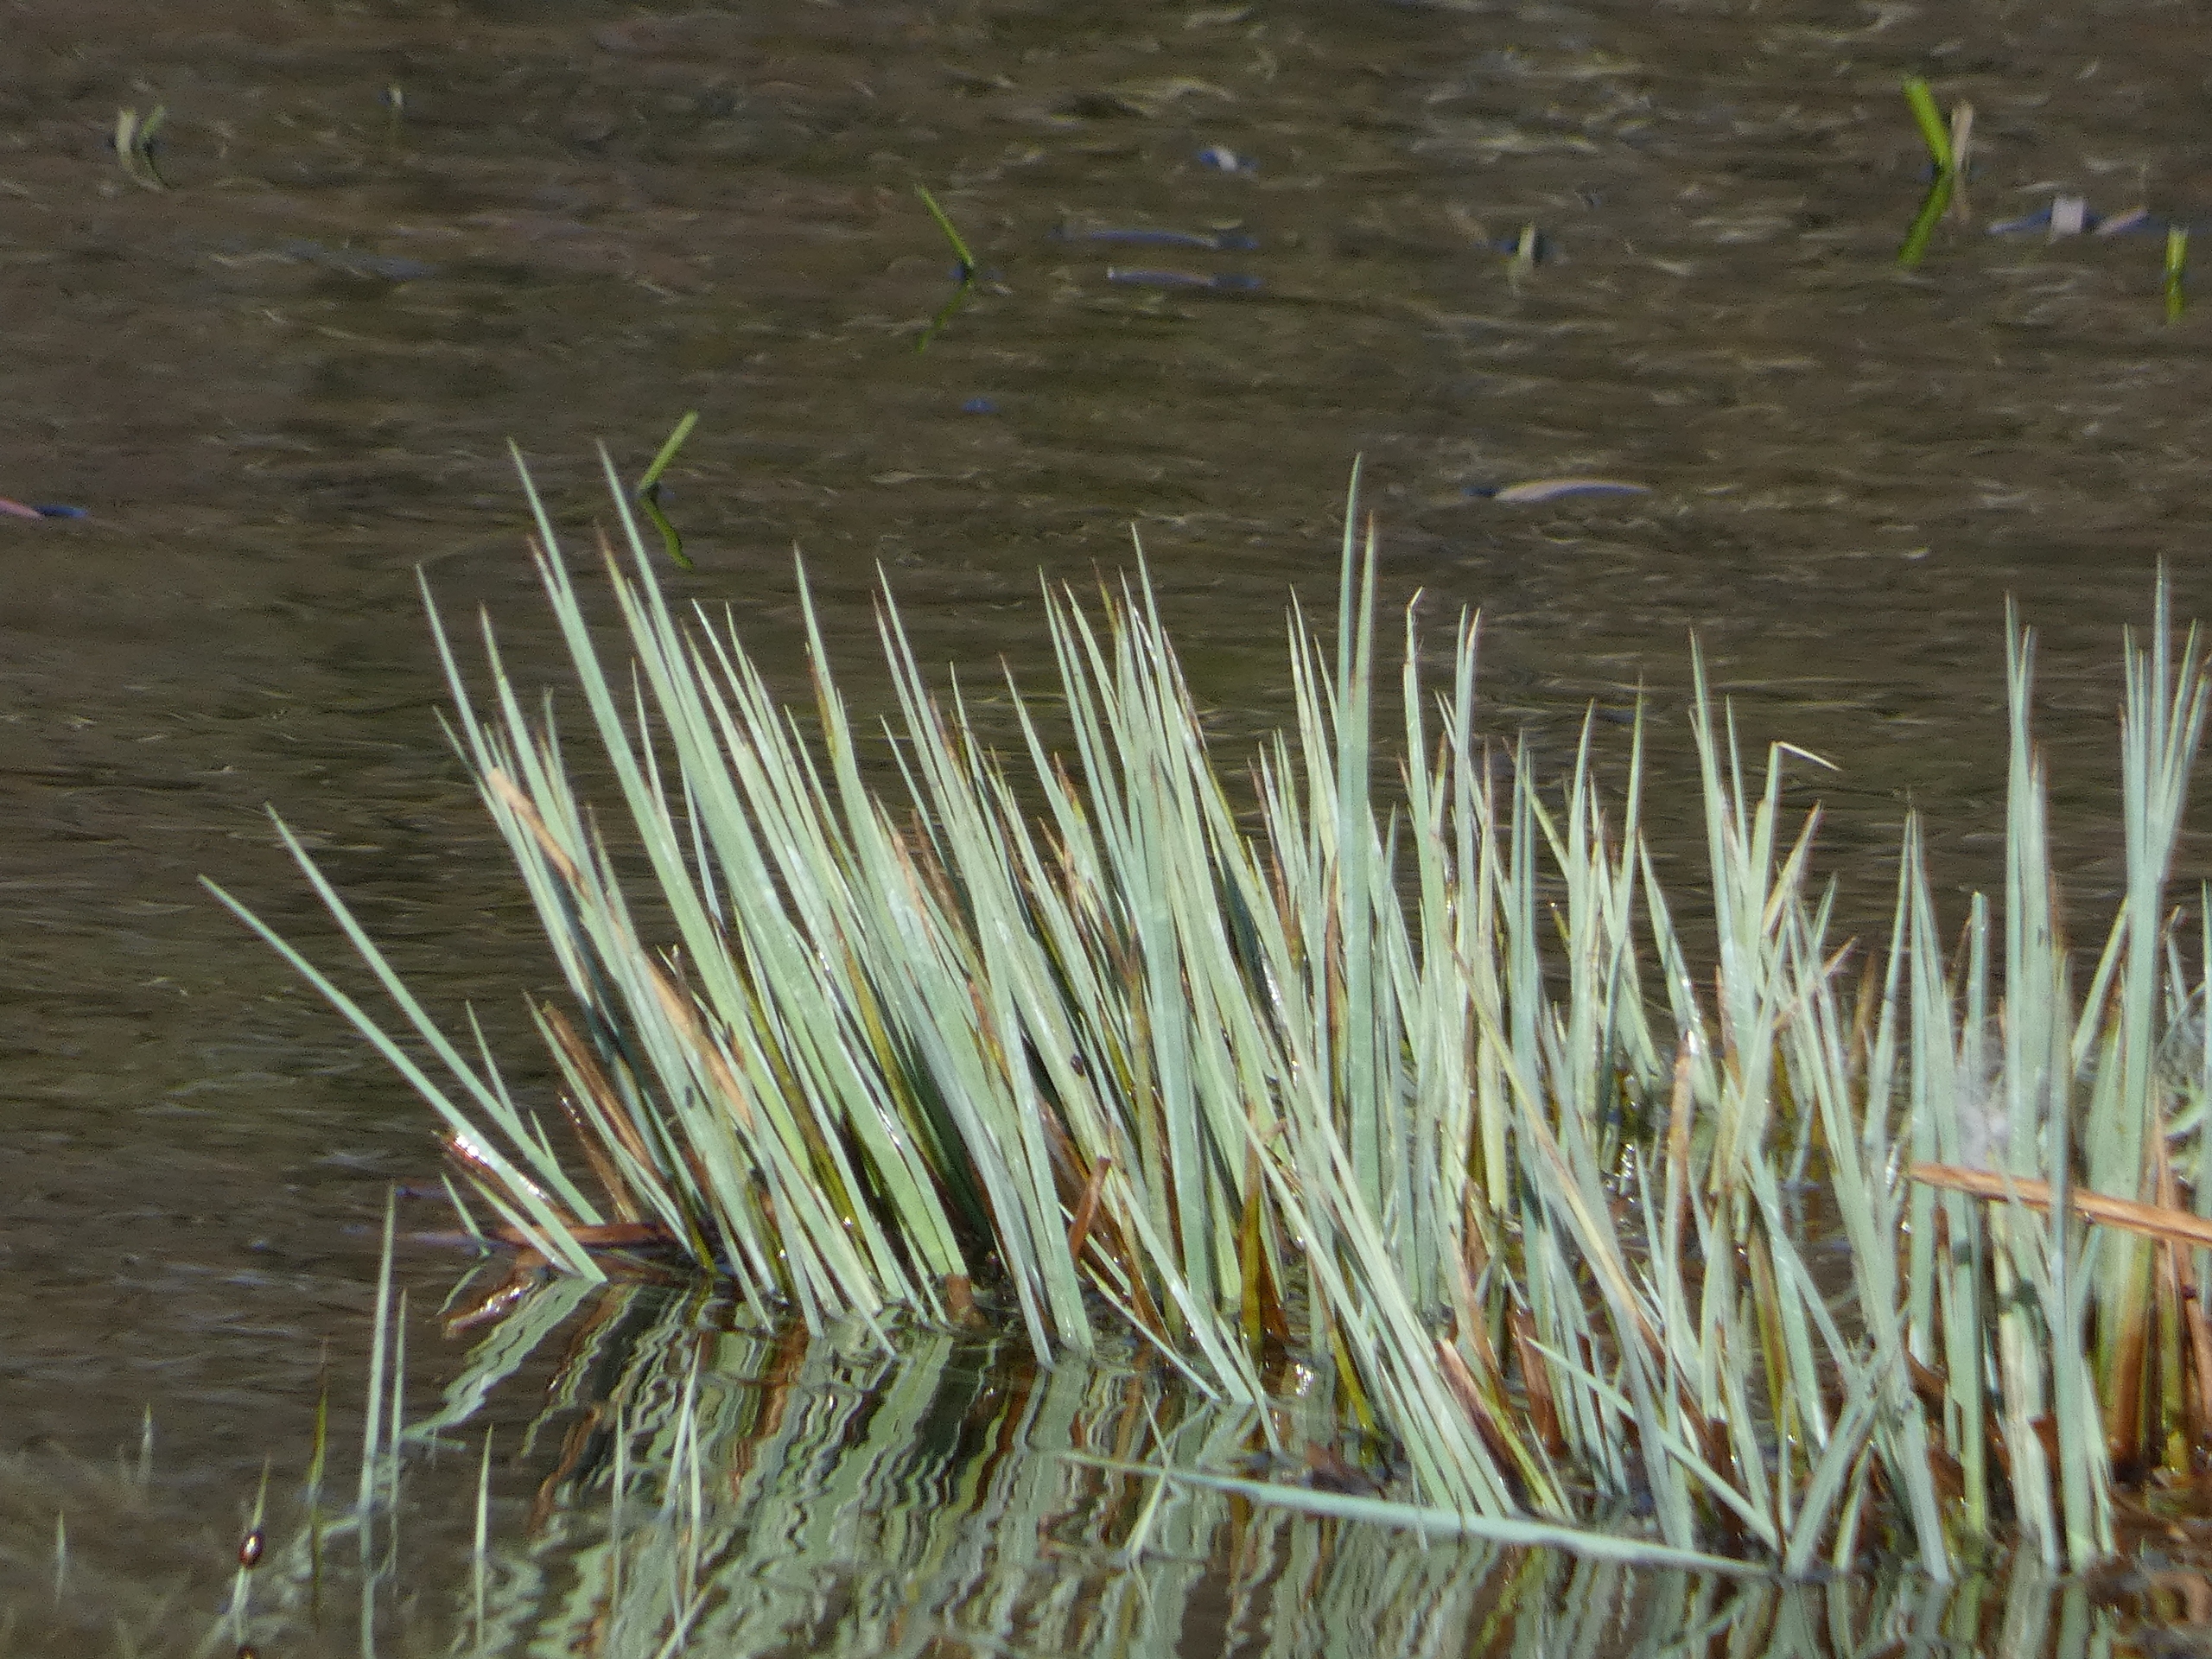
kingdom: Plantae
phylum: Tracheophyta
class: Liliopsida
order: Poales
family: Cyperaceae
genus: Carex
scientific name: Carex elata
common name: Stiv star
